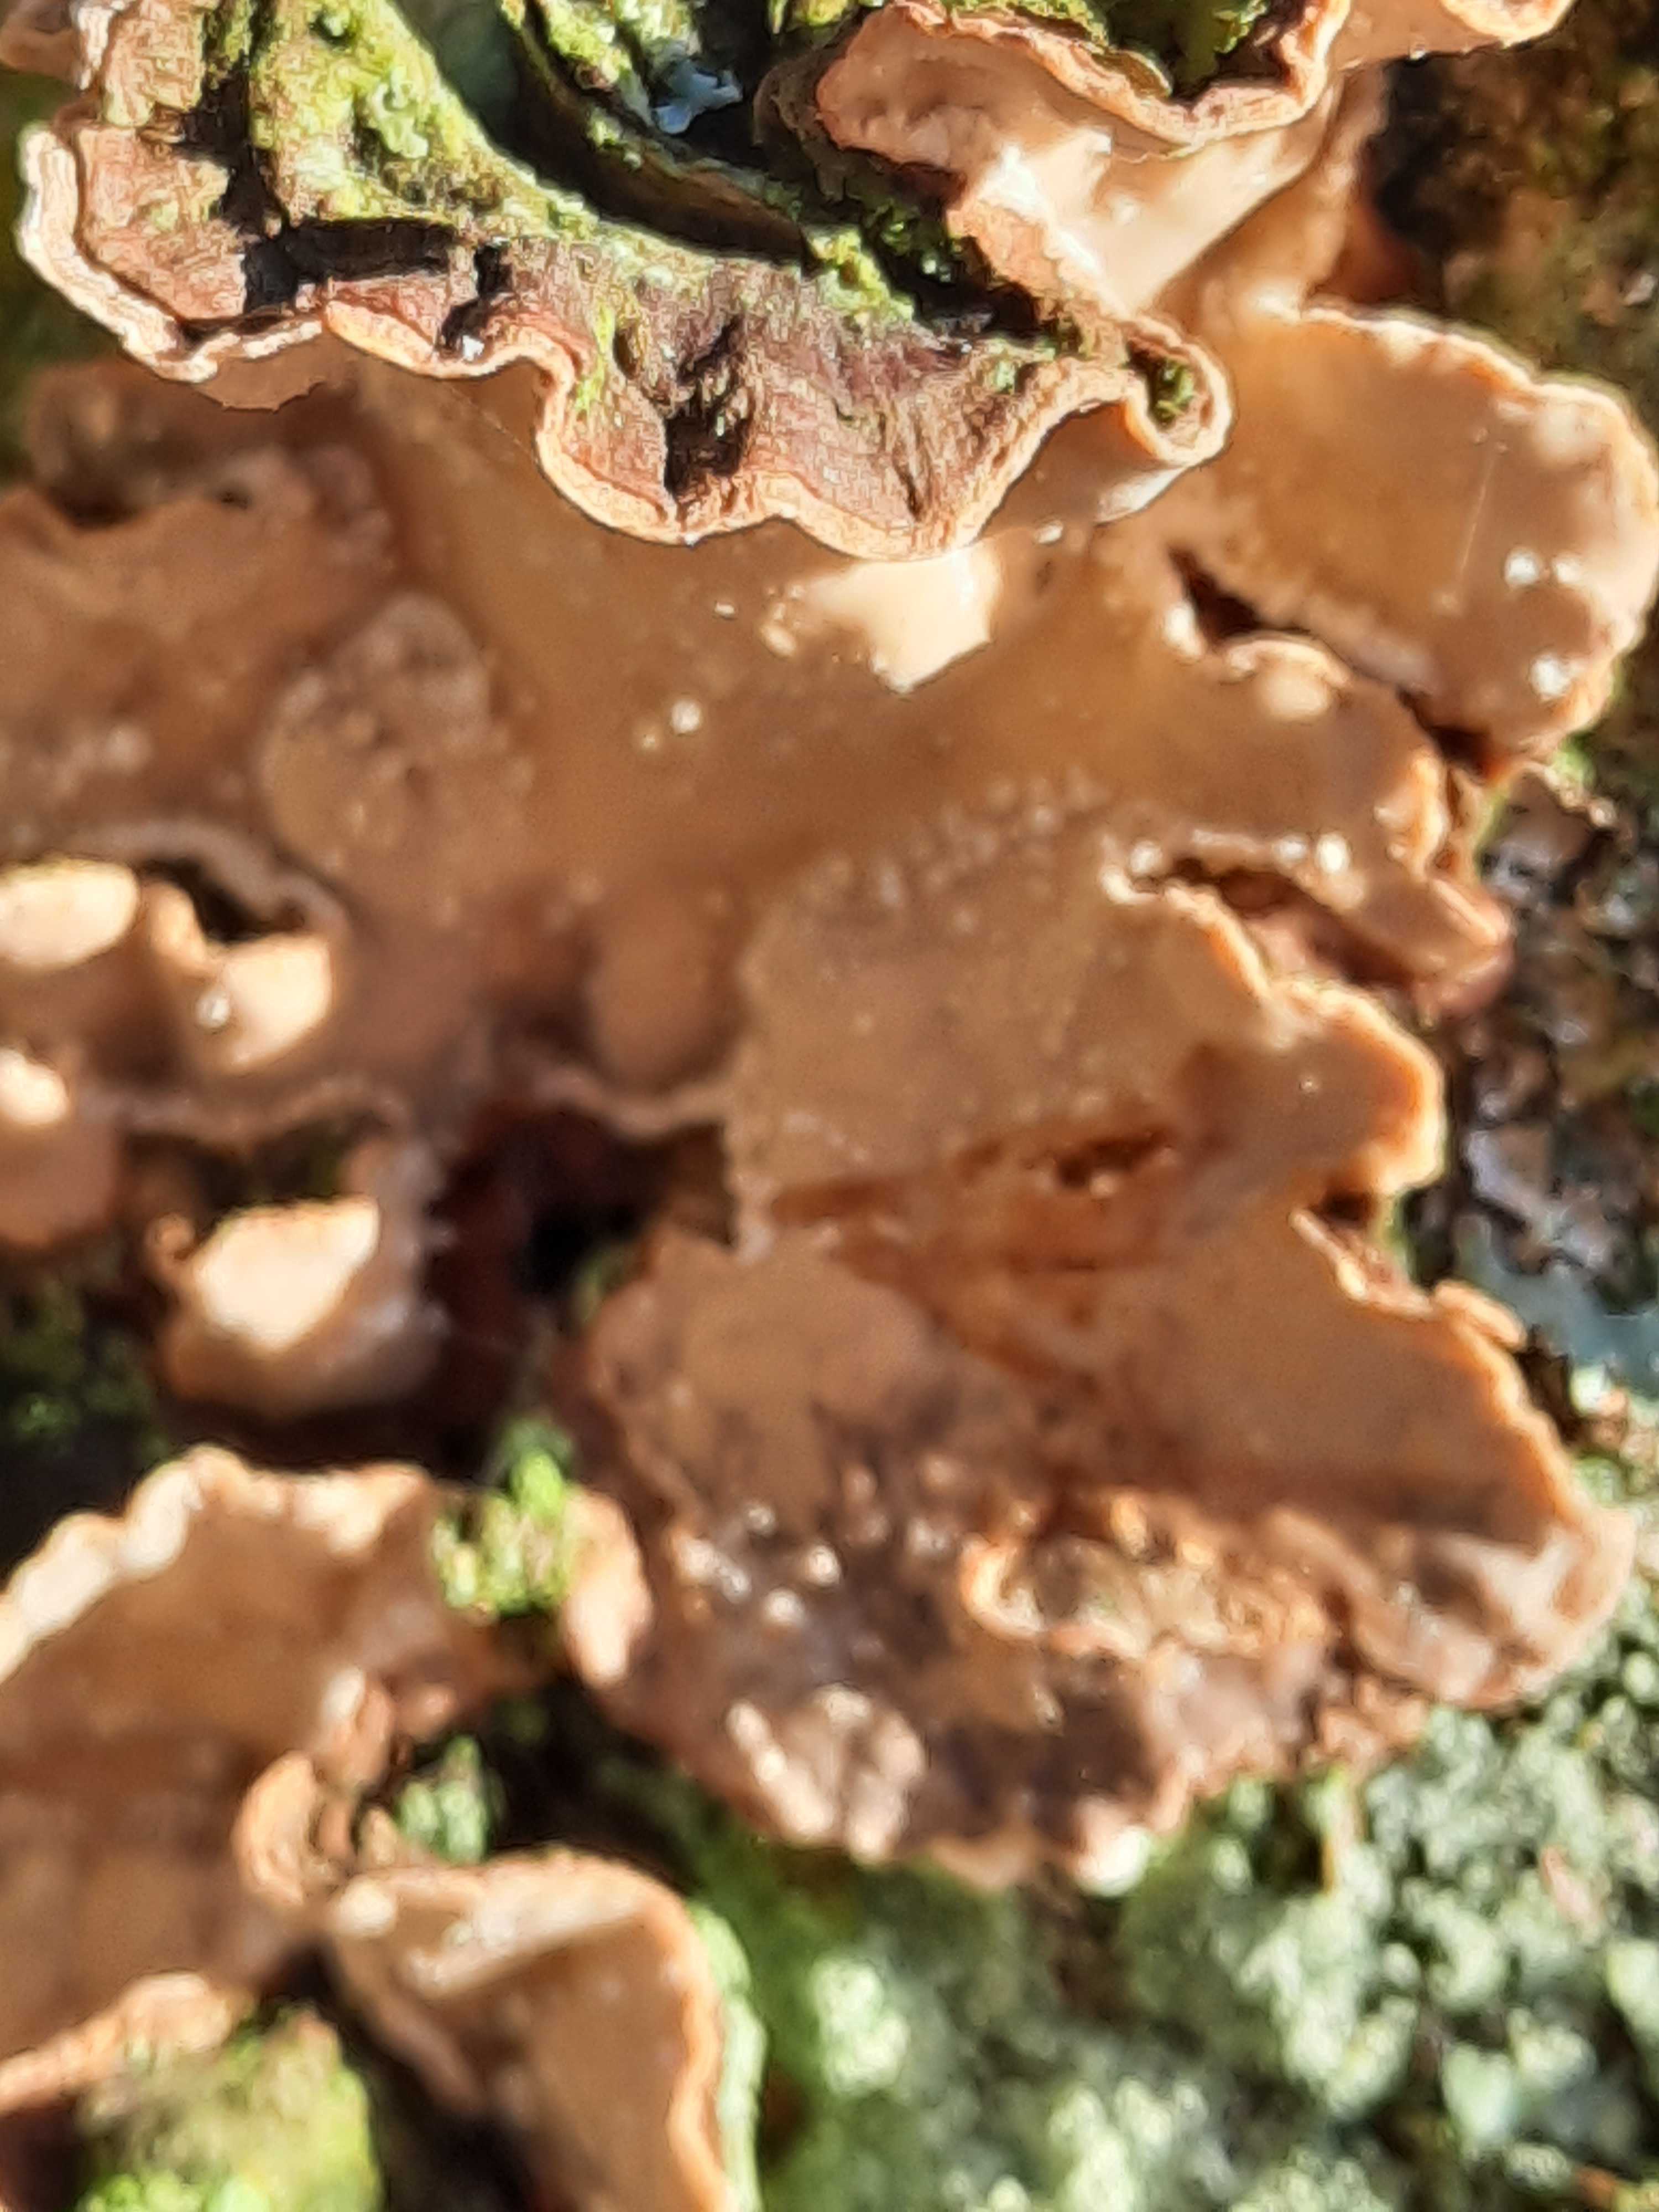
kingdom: Fungi
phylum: Basidiomycota
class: Agaricomycetes
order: Russulales
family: Stereaceae
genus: Stereum
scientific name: Stereum rugosum
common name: rynket lædersvamp
